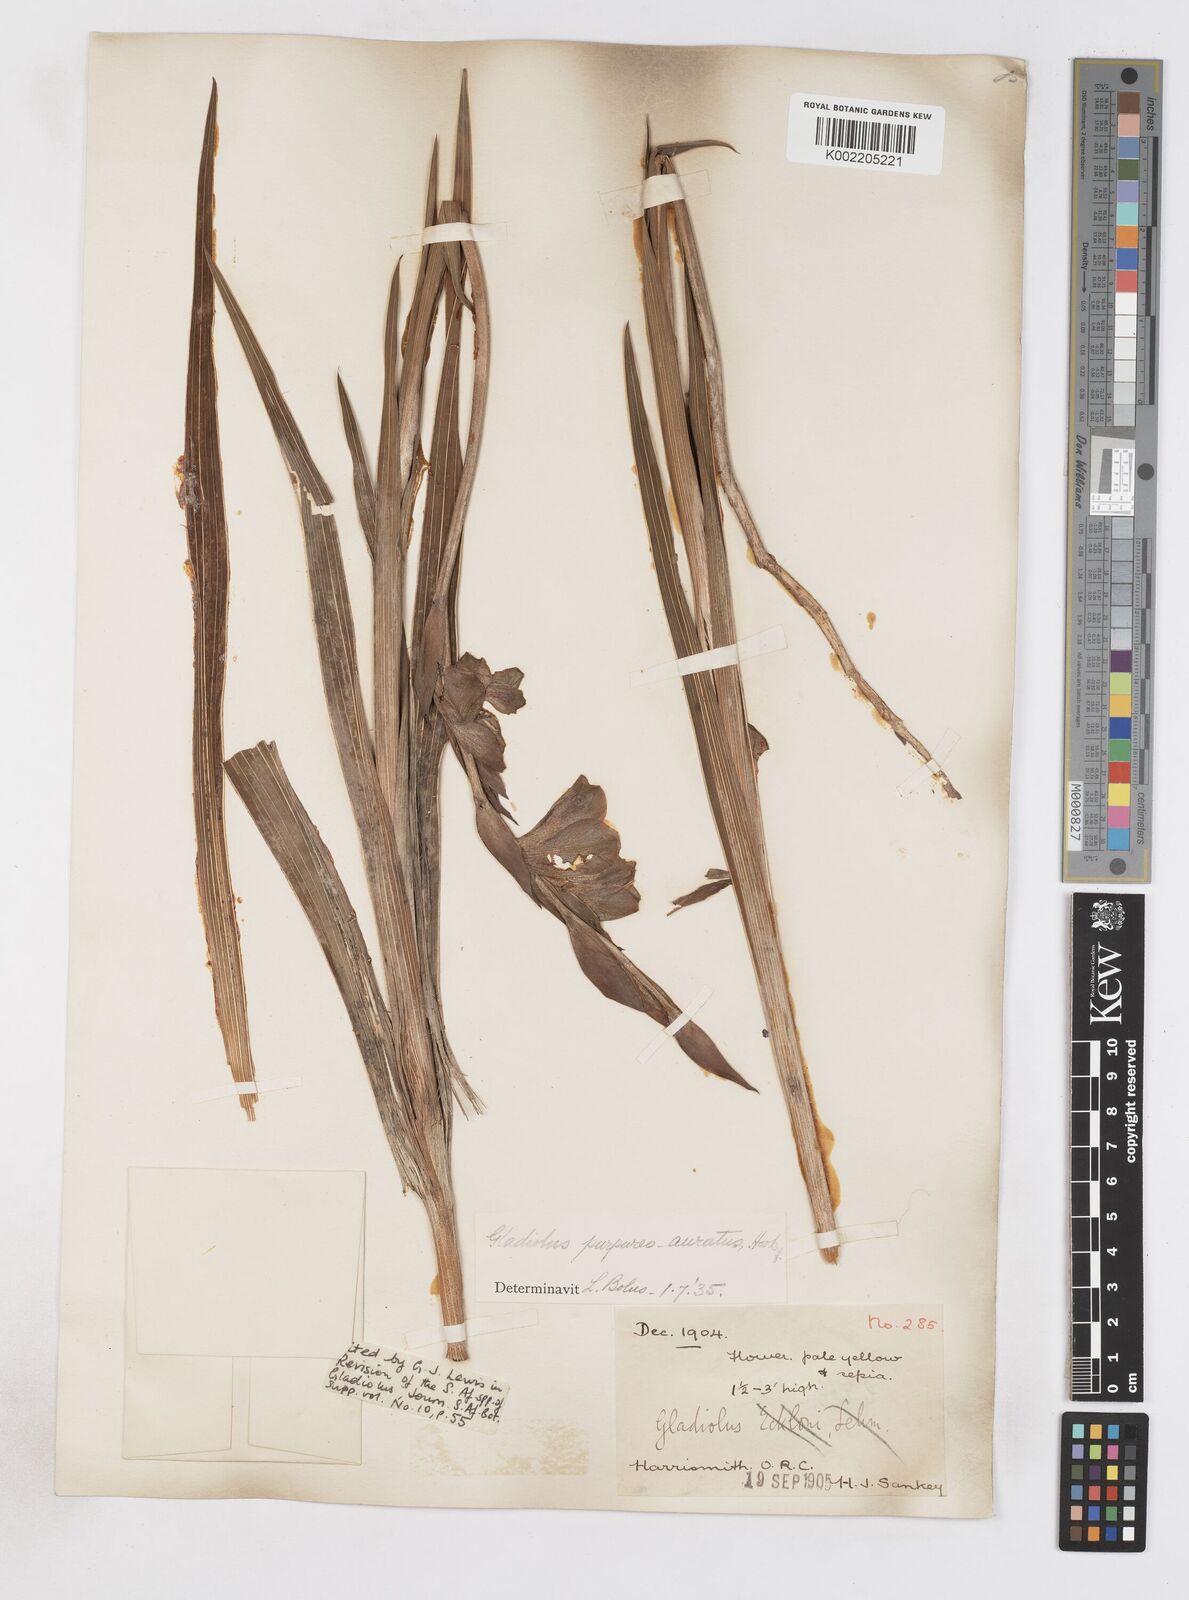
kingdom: Plantae
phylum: Tracheophyta
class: Liliopsida
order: Asparagales
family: Iridaceae
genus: Gladiolus
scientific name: Gladiolus papilio
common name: Goldblotch gladiolus
